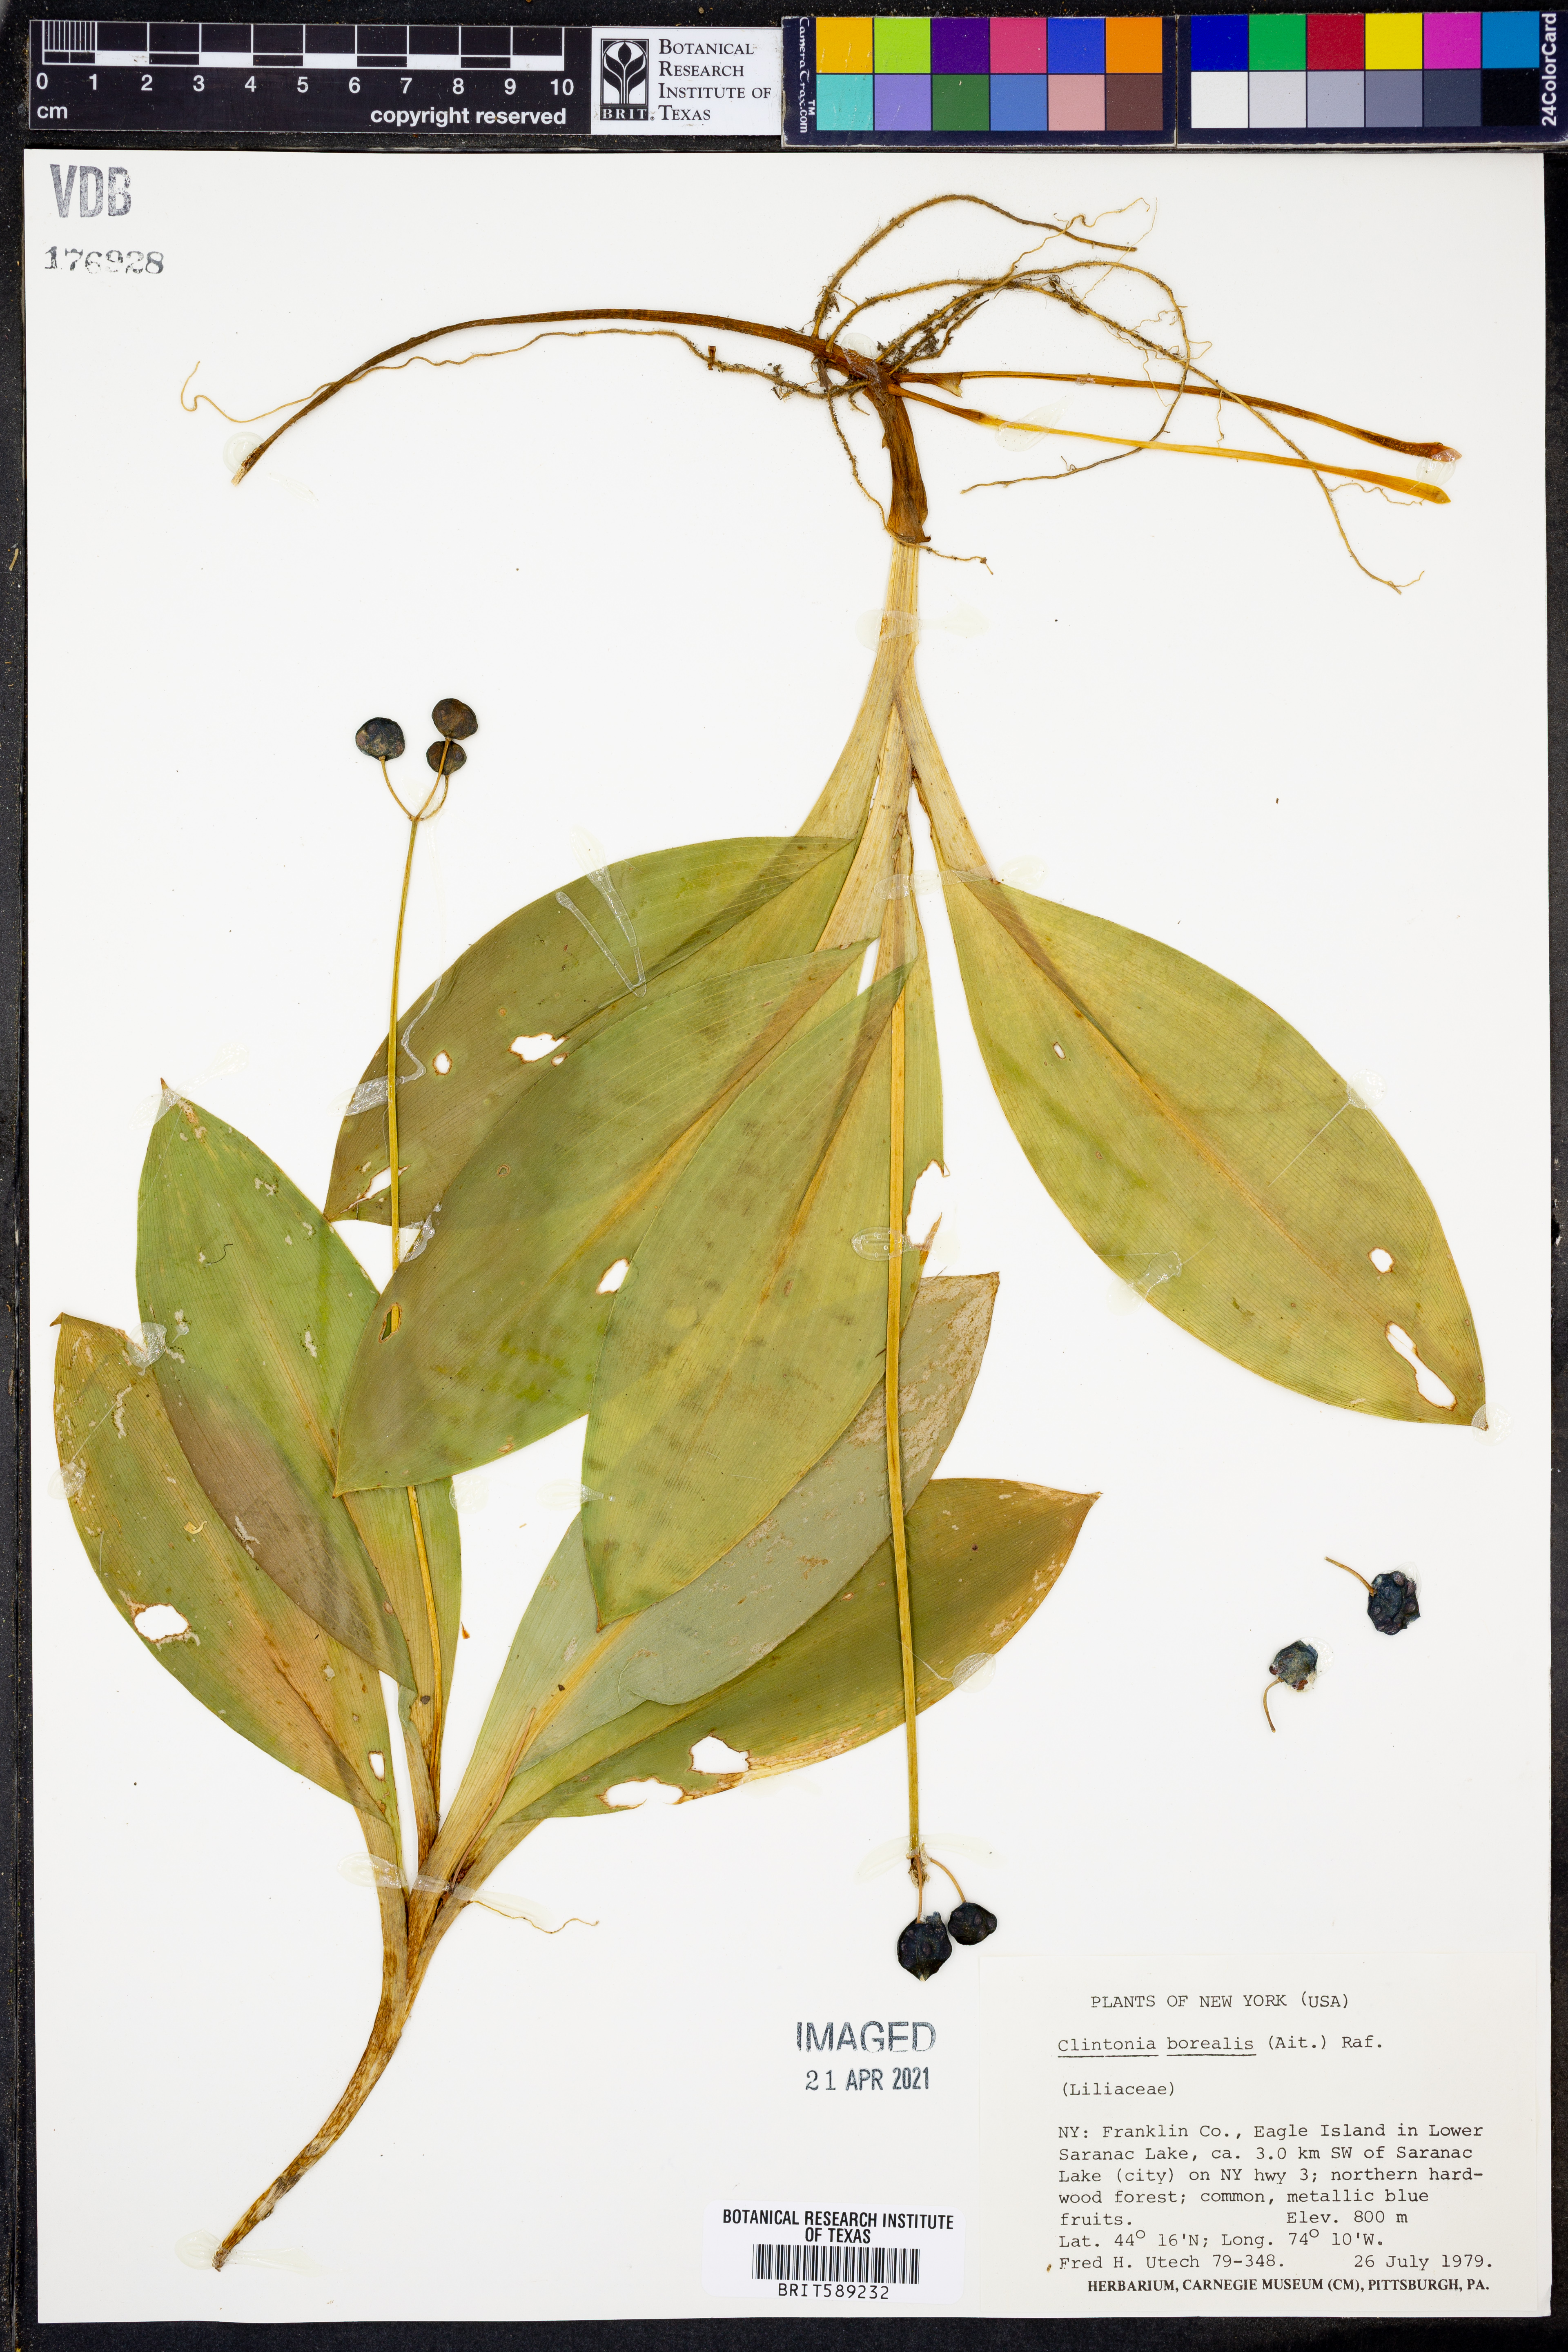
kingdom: Plantae
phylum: Tracheophyta
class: Liliopsida
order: Liliales
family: Liliaceae
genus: Clintonia
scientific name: Clintonia borealis
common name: Yellow clintonia
